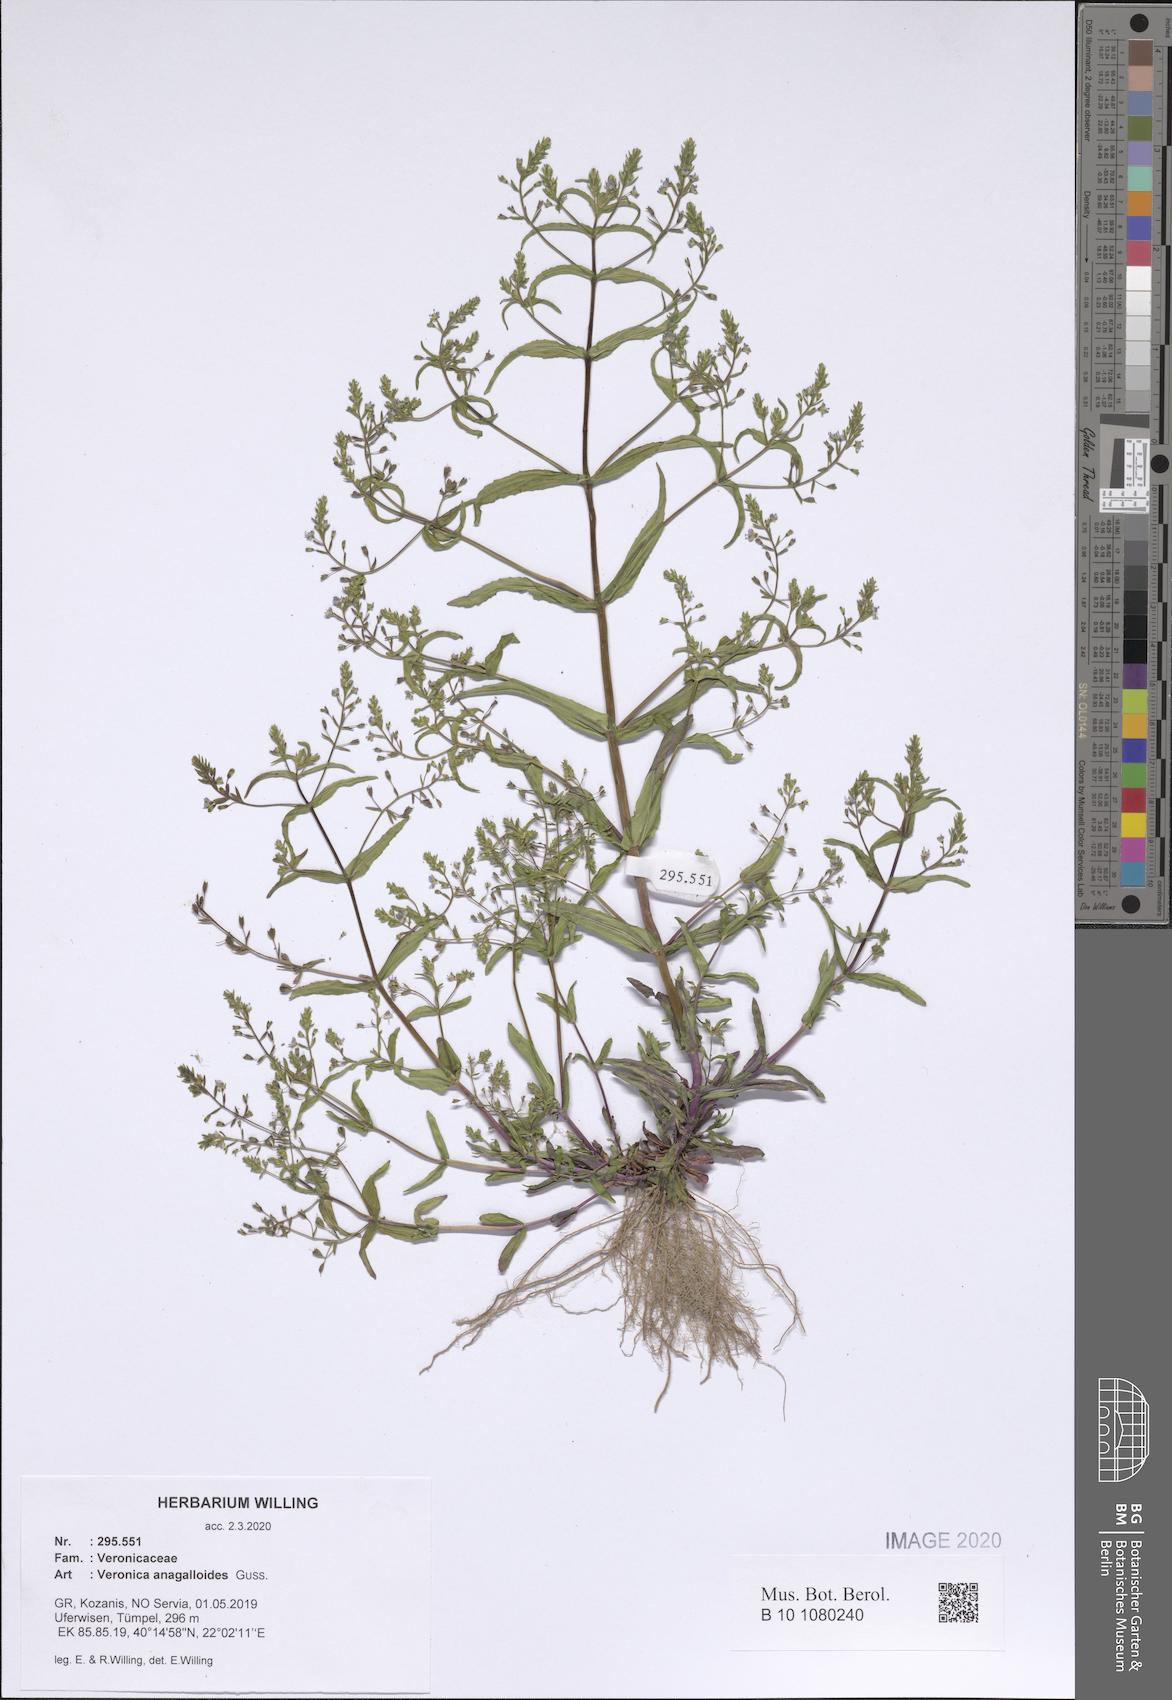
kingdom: Plantae
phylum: Tracheophyta
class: Magnoliopsida
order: Lamiales
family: Plantaginaceae
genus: Veronica
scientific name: Veronica anagalloides
